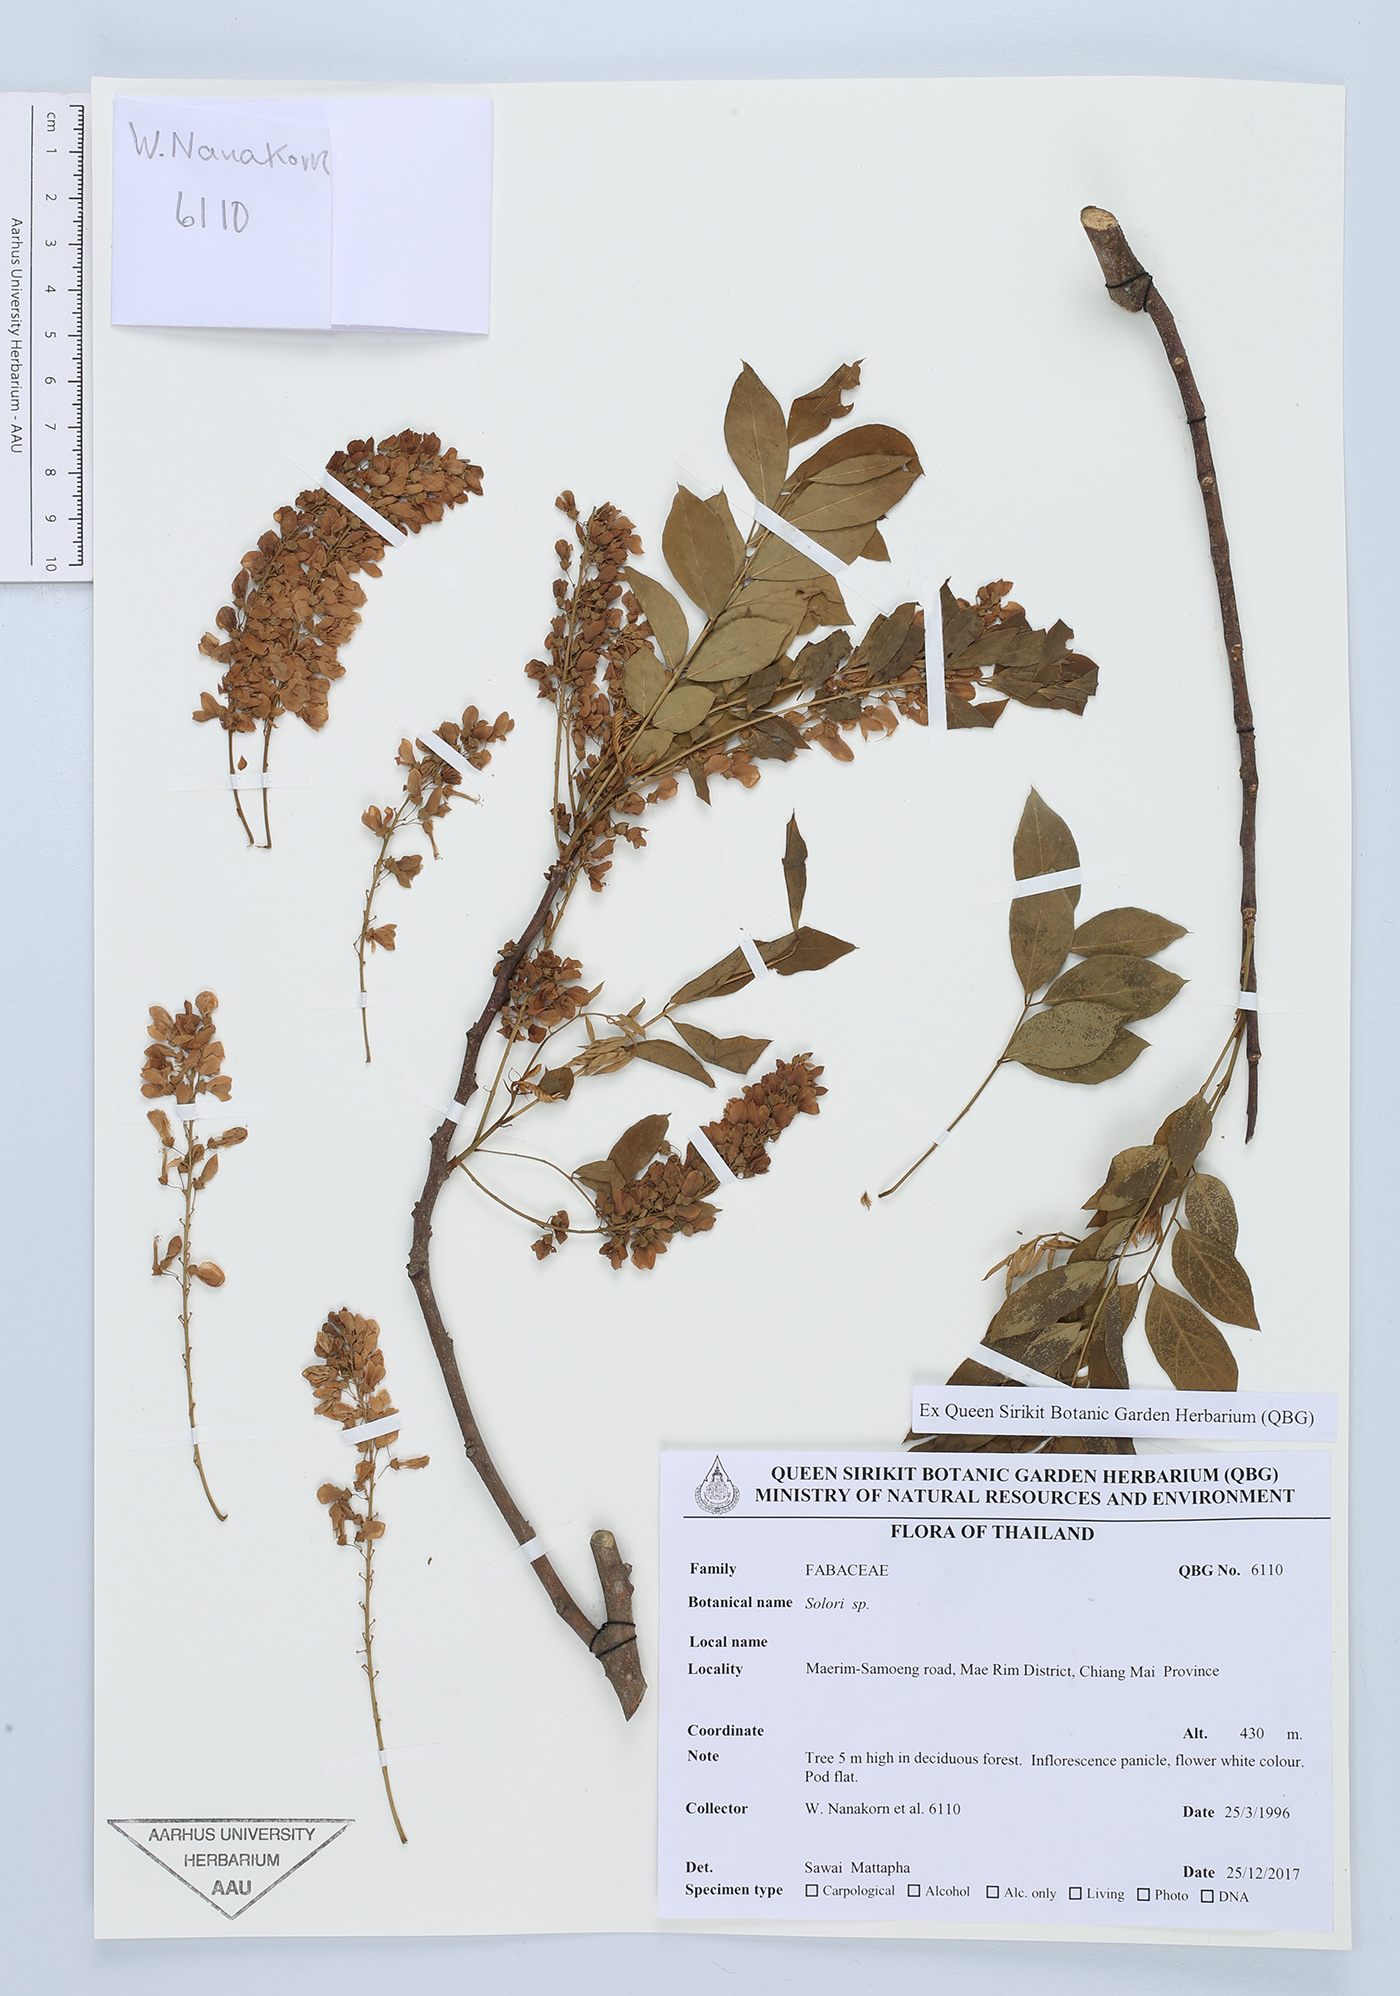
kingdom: Plantae
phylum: Tracheophyta
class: Magnoliopsida
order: Fabales
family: Fabaceae
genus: Brachypterum
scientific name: Brachypterum
